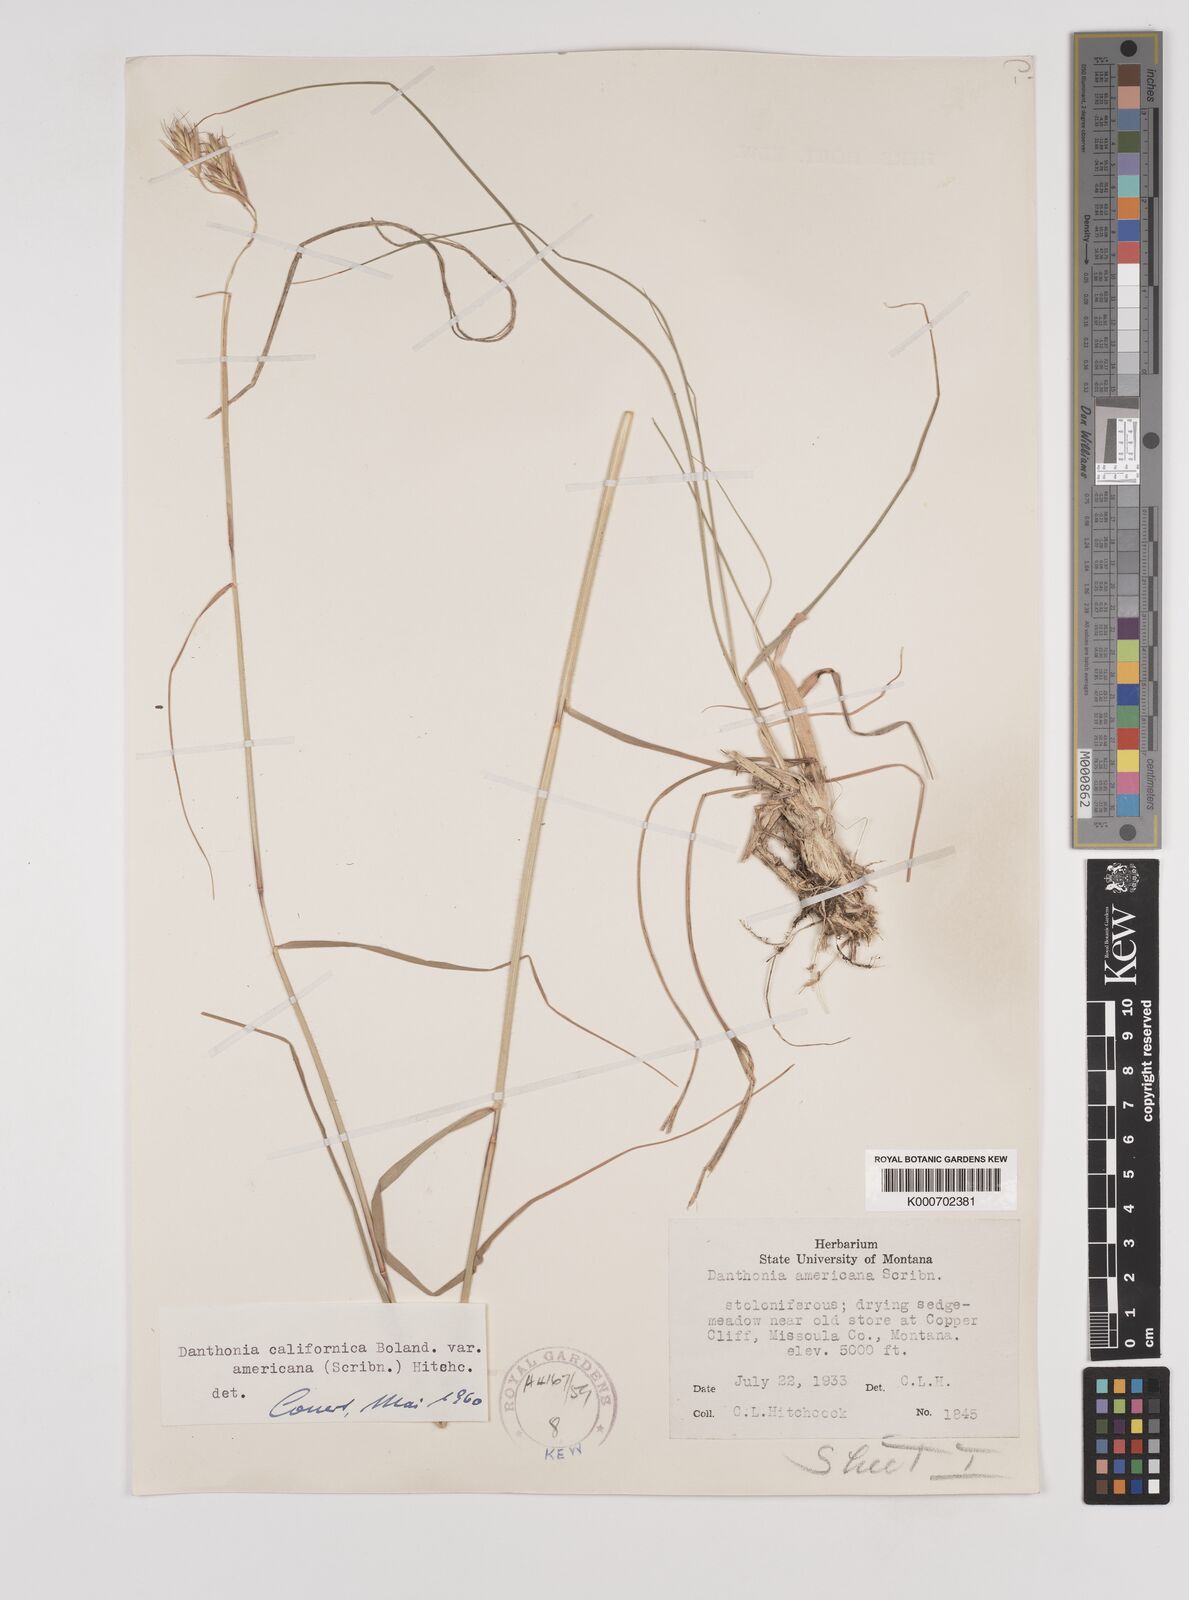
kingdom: Plantae
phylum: Tracheophyta
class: Liliopsida
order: Poales
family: Poaceae
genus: Danthonia
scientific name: Danthonia californica
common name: California oat grass
